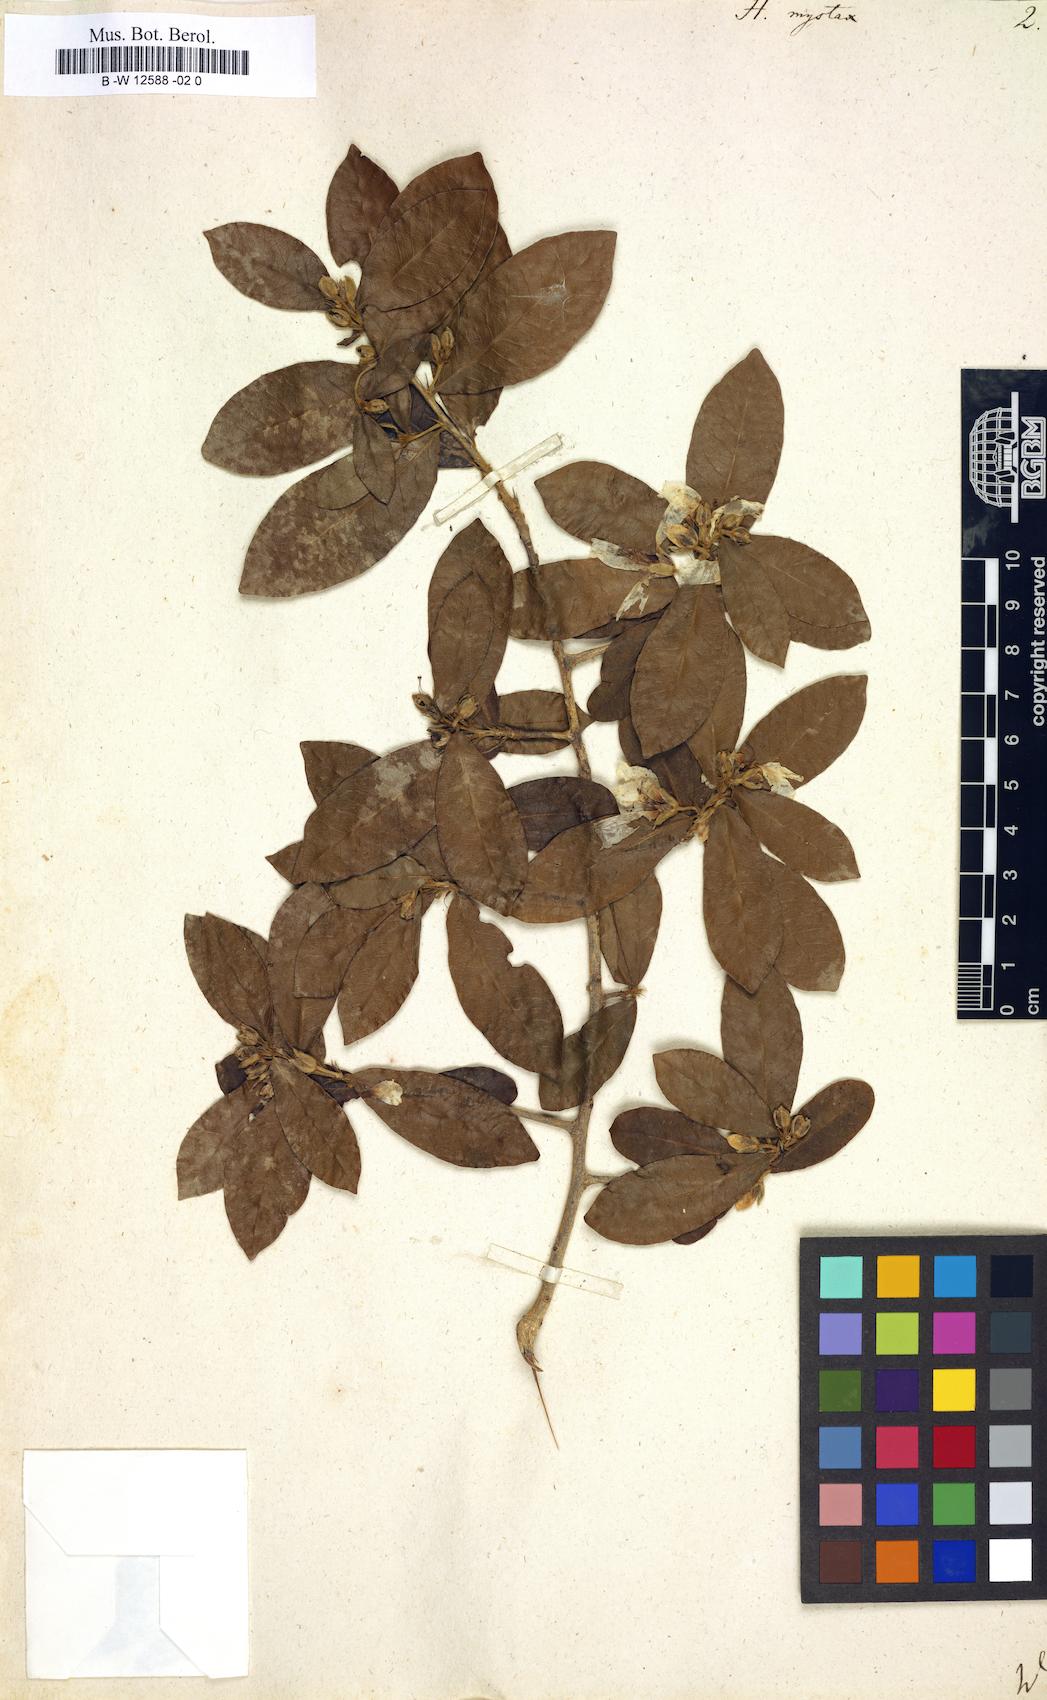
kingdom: Plantae
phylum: Tracheophyta
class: Magnoliopsida
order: Malpighiales
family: Linaceae
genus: Hugonia
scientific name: Hugonia mystax
